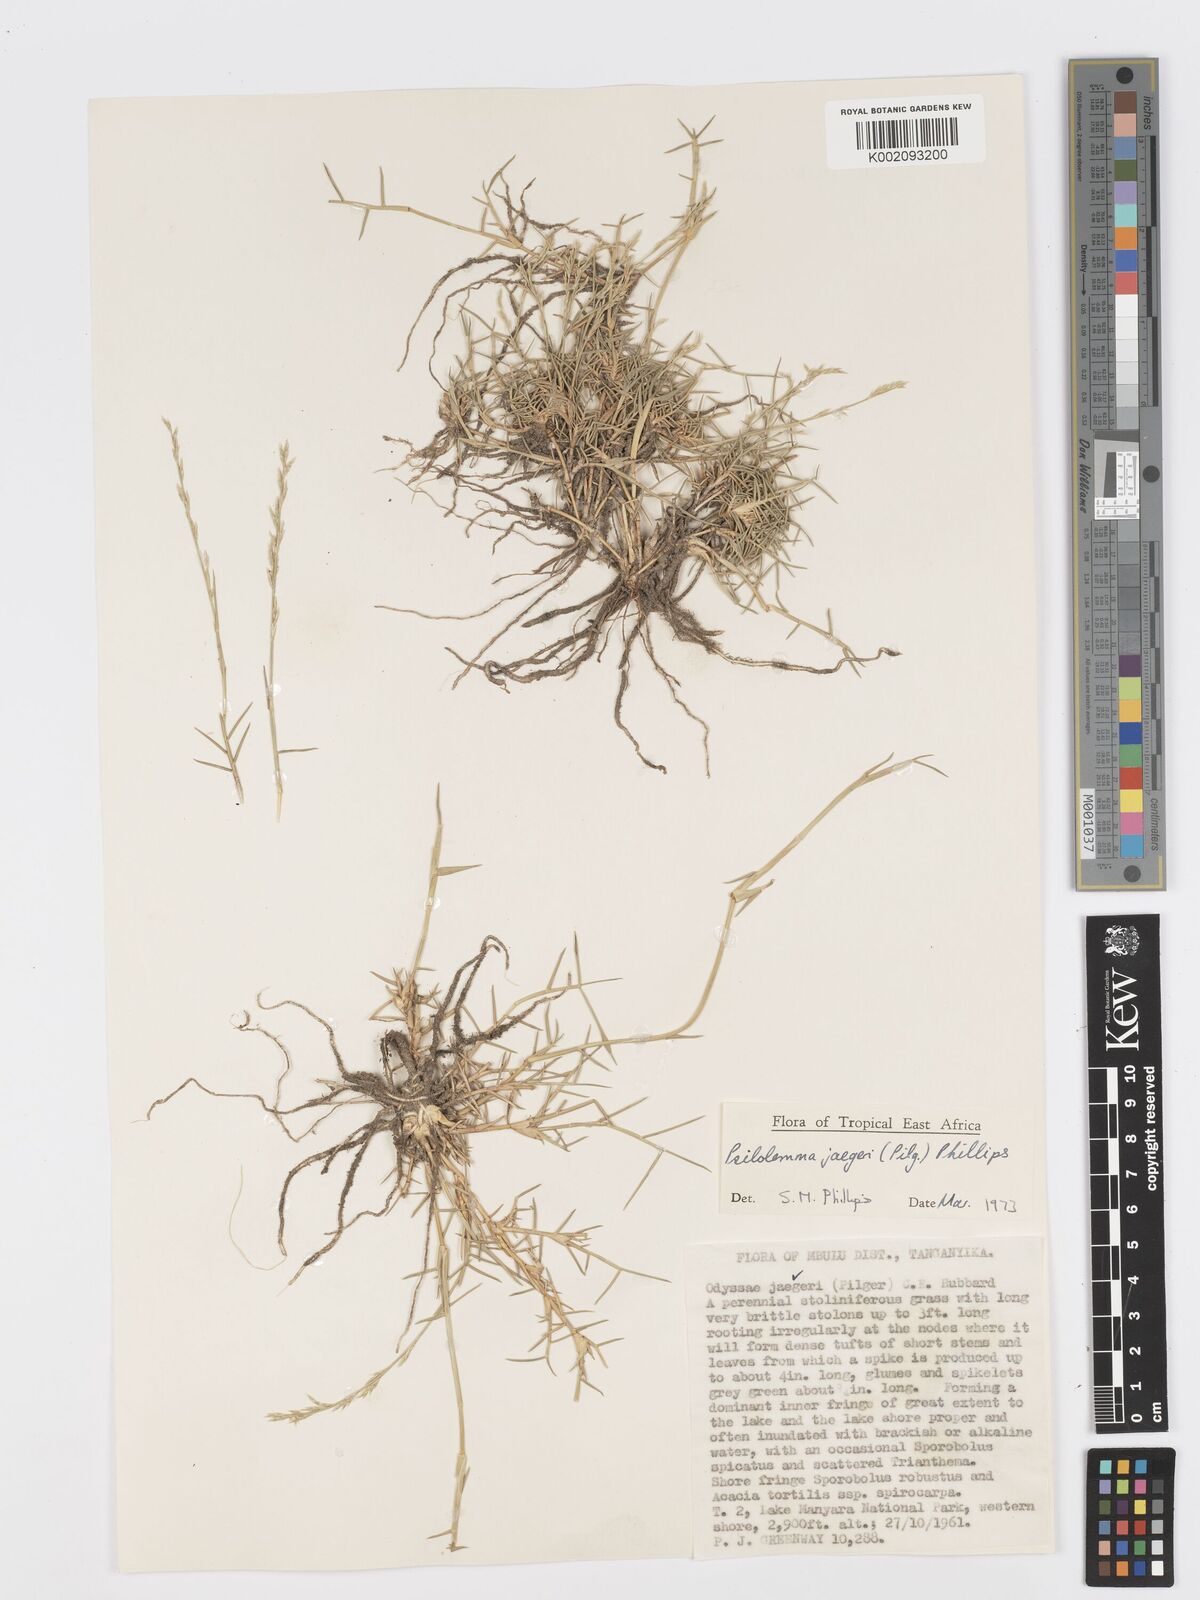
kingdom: Plantae
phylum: Tracheophyta
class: Liliopsida
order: Poales
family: Poaceae
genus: Psilolemma
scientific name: Psilolemma jaegeri
